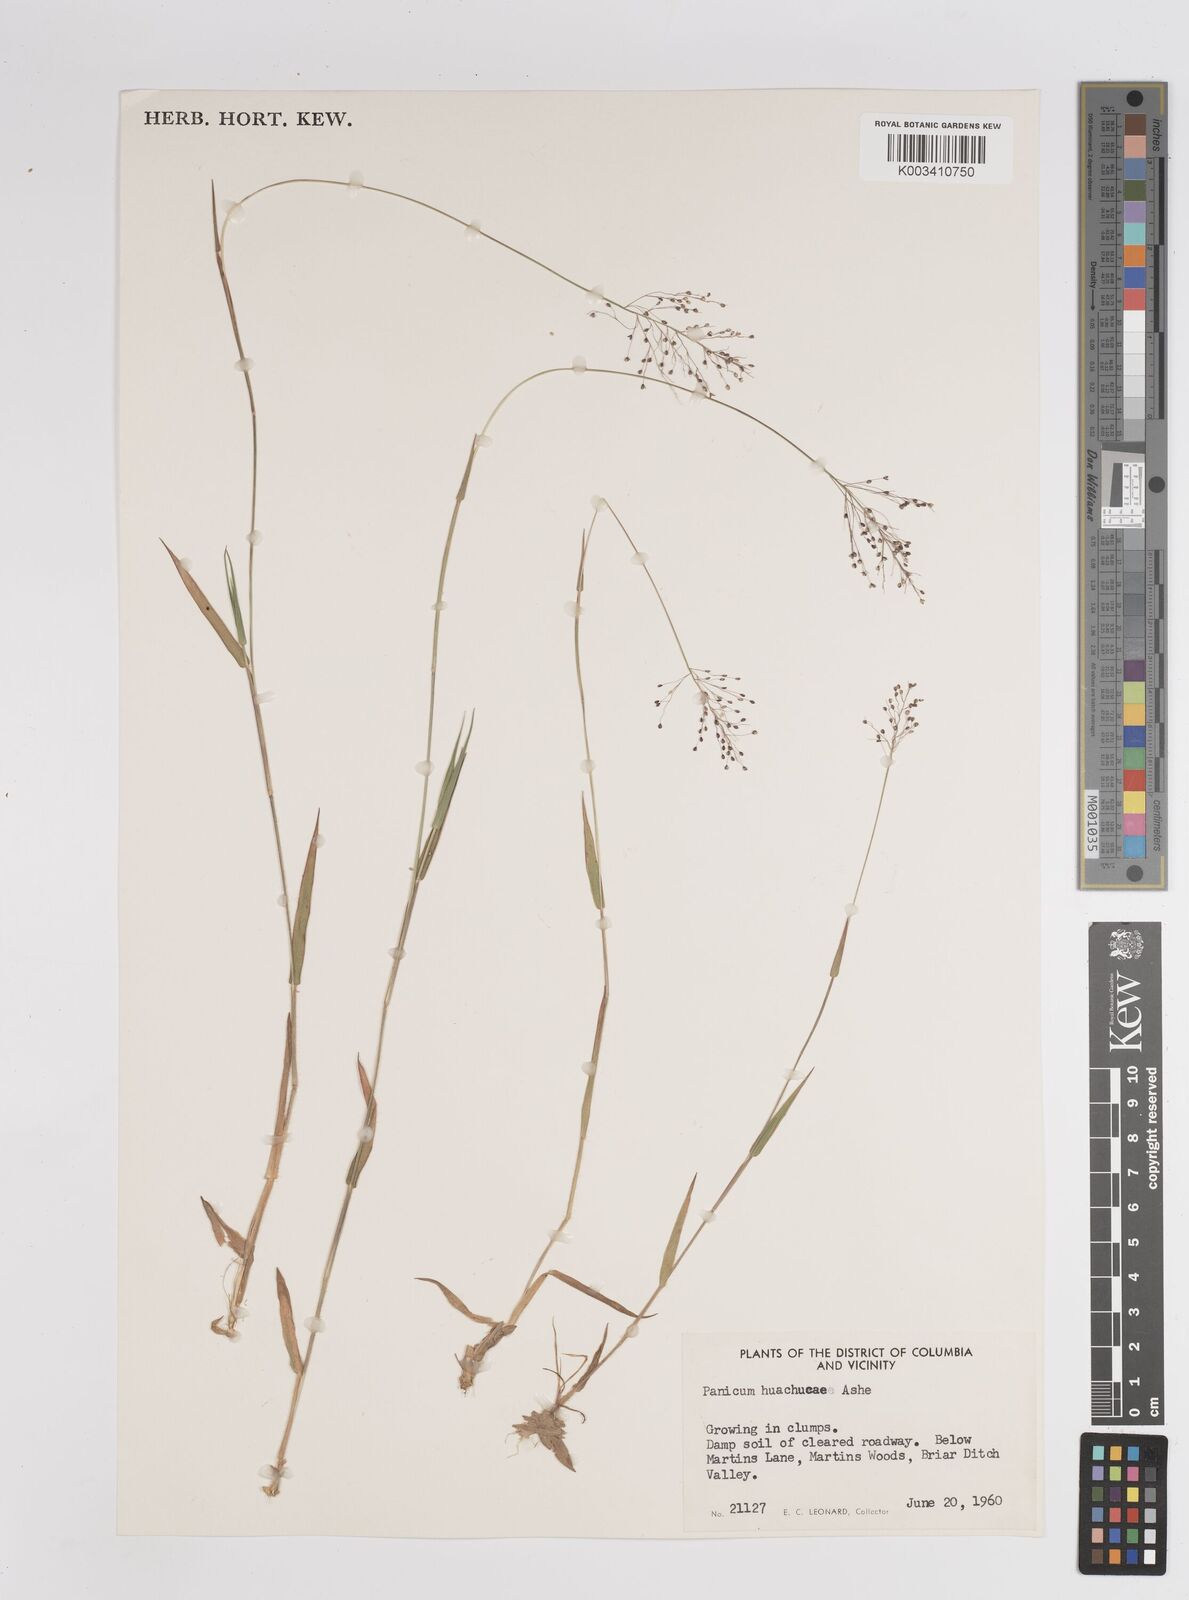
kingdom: Plantae
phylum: Tracheophyta
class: Liliopsida
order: Poales
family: Poaceae
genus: Dichanthelium
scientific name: Dichanthelium acuminatum
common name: Hairy panic grass
